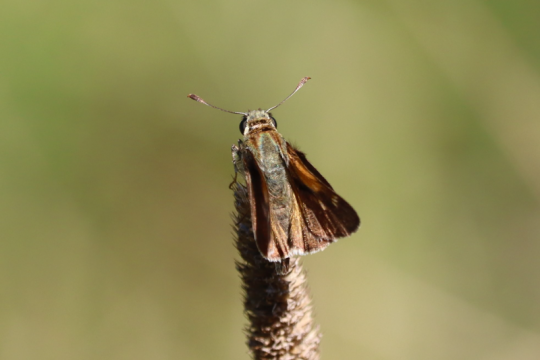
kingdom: Animalia
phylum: Arthropoda
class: Insecta
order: Lepidoptera
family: Hesperiidae
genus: Polites
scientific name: Polites themistocles
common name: Tawny-edged Skipper
